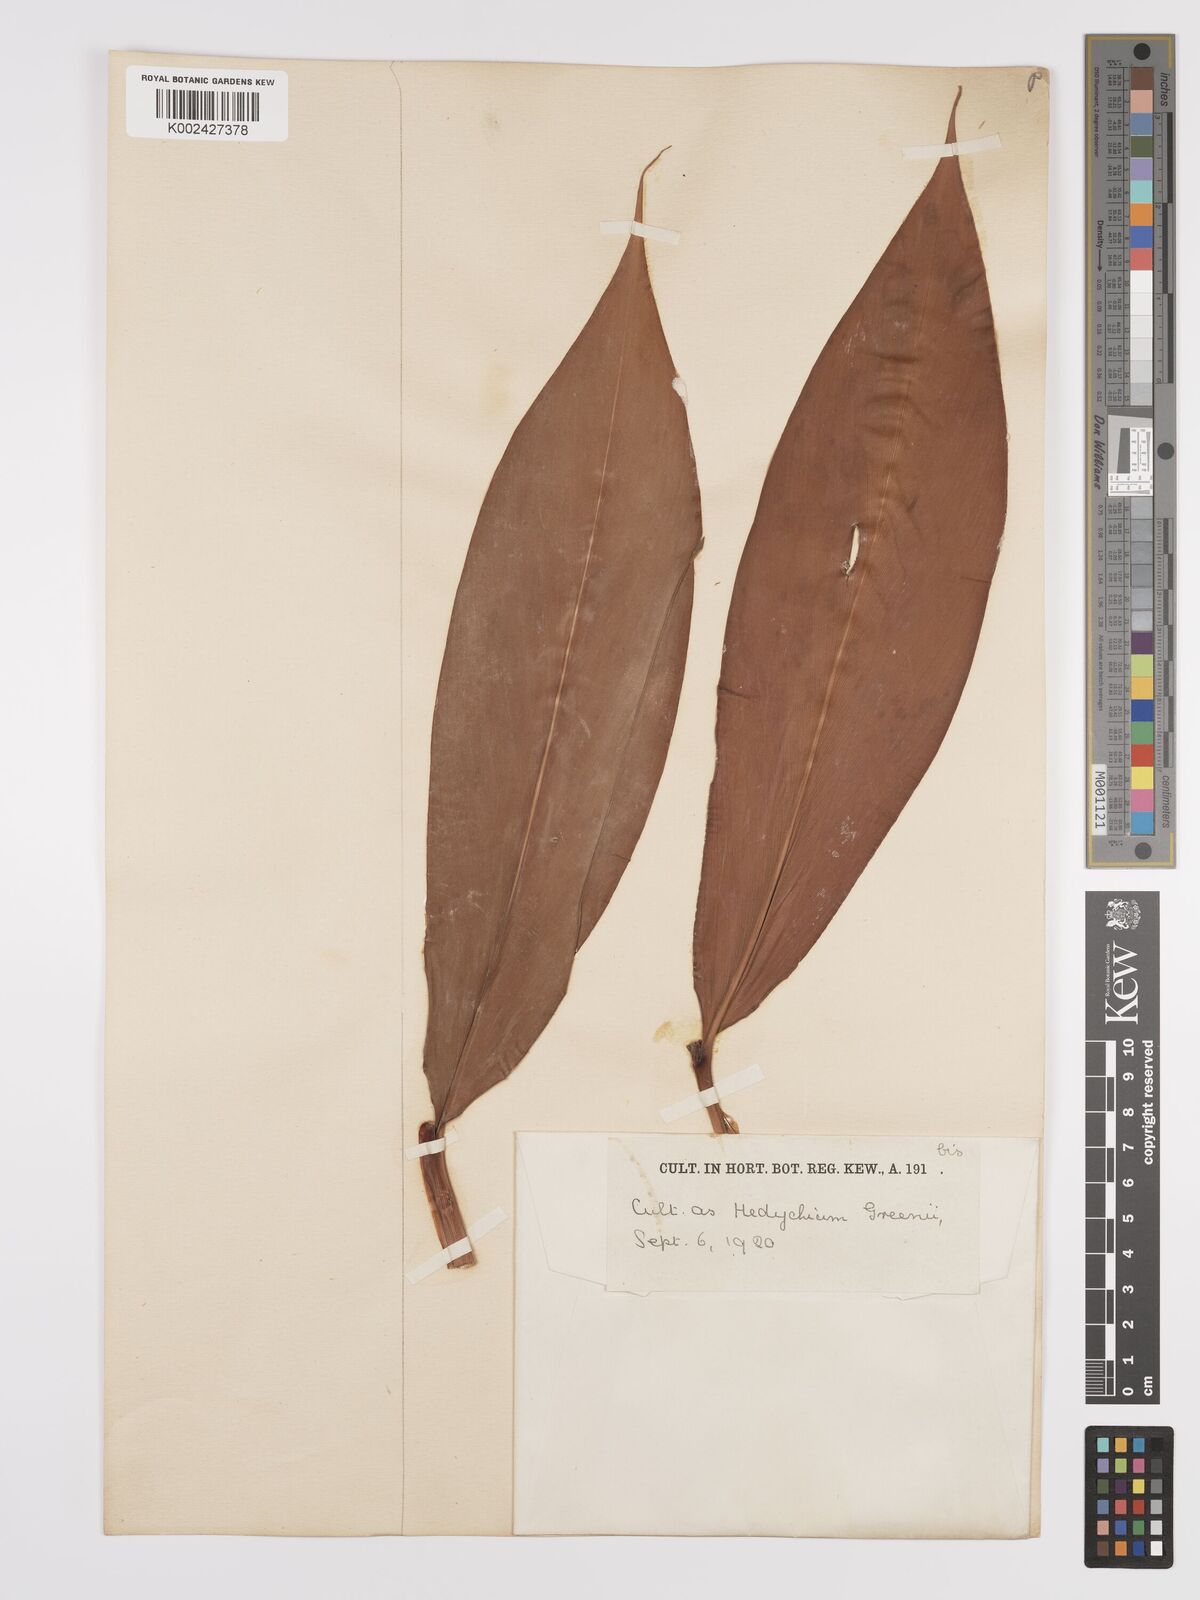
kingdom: Plantae
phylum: Tracheophyta
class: Liliopsida
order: Zingiberales
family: Zingiberaceae
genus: Hedychium
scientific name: Hedychium greenii
